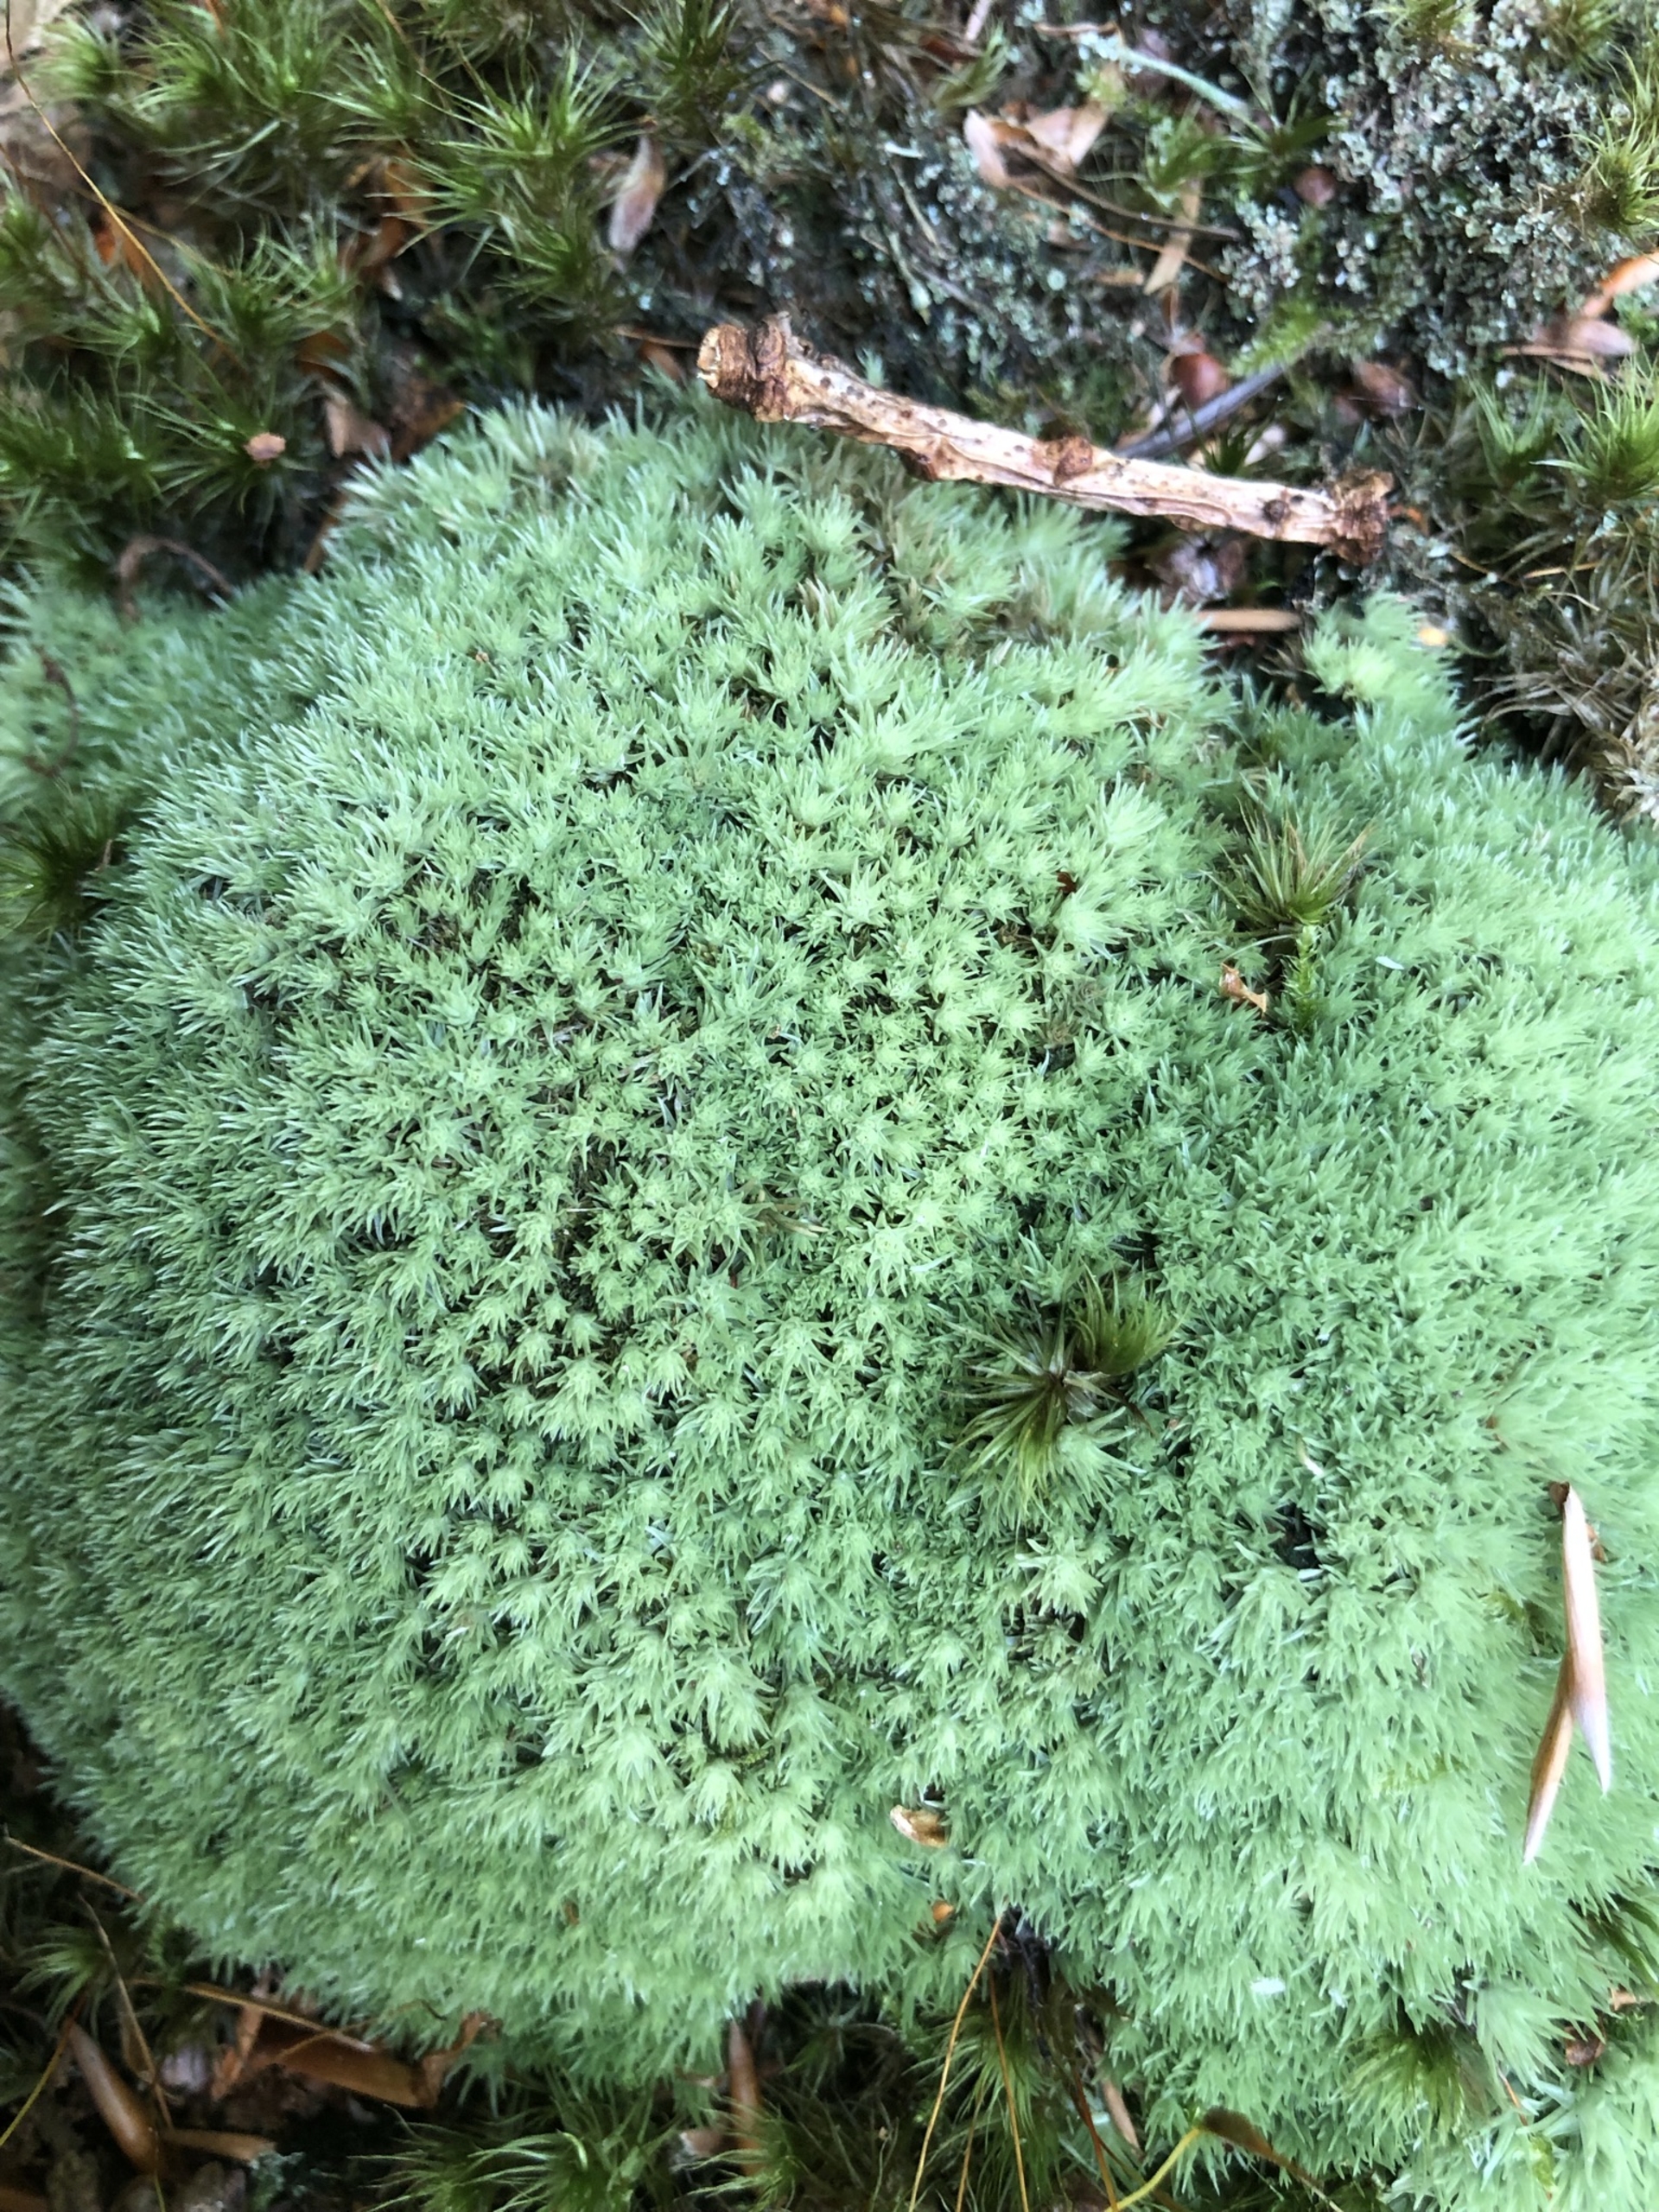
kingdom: Plantae
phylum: Bryophyta
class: Bryopsida
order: Dicranales
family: Leucobryaceae
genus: Leucobryum
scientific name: Leucobryum glaucum
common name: Almindelig hvidmos
